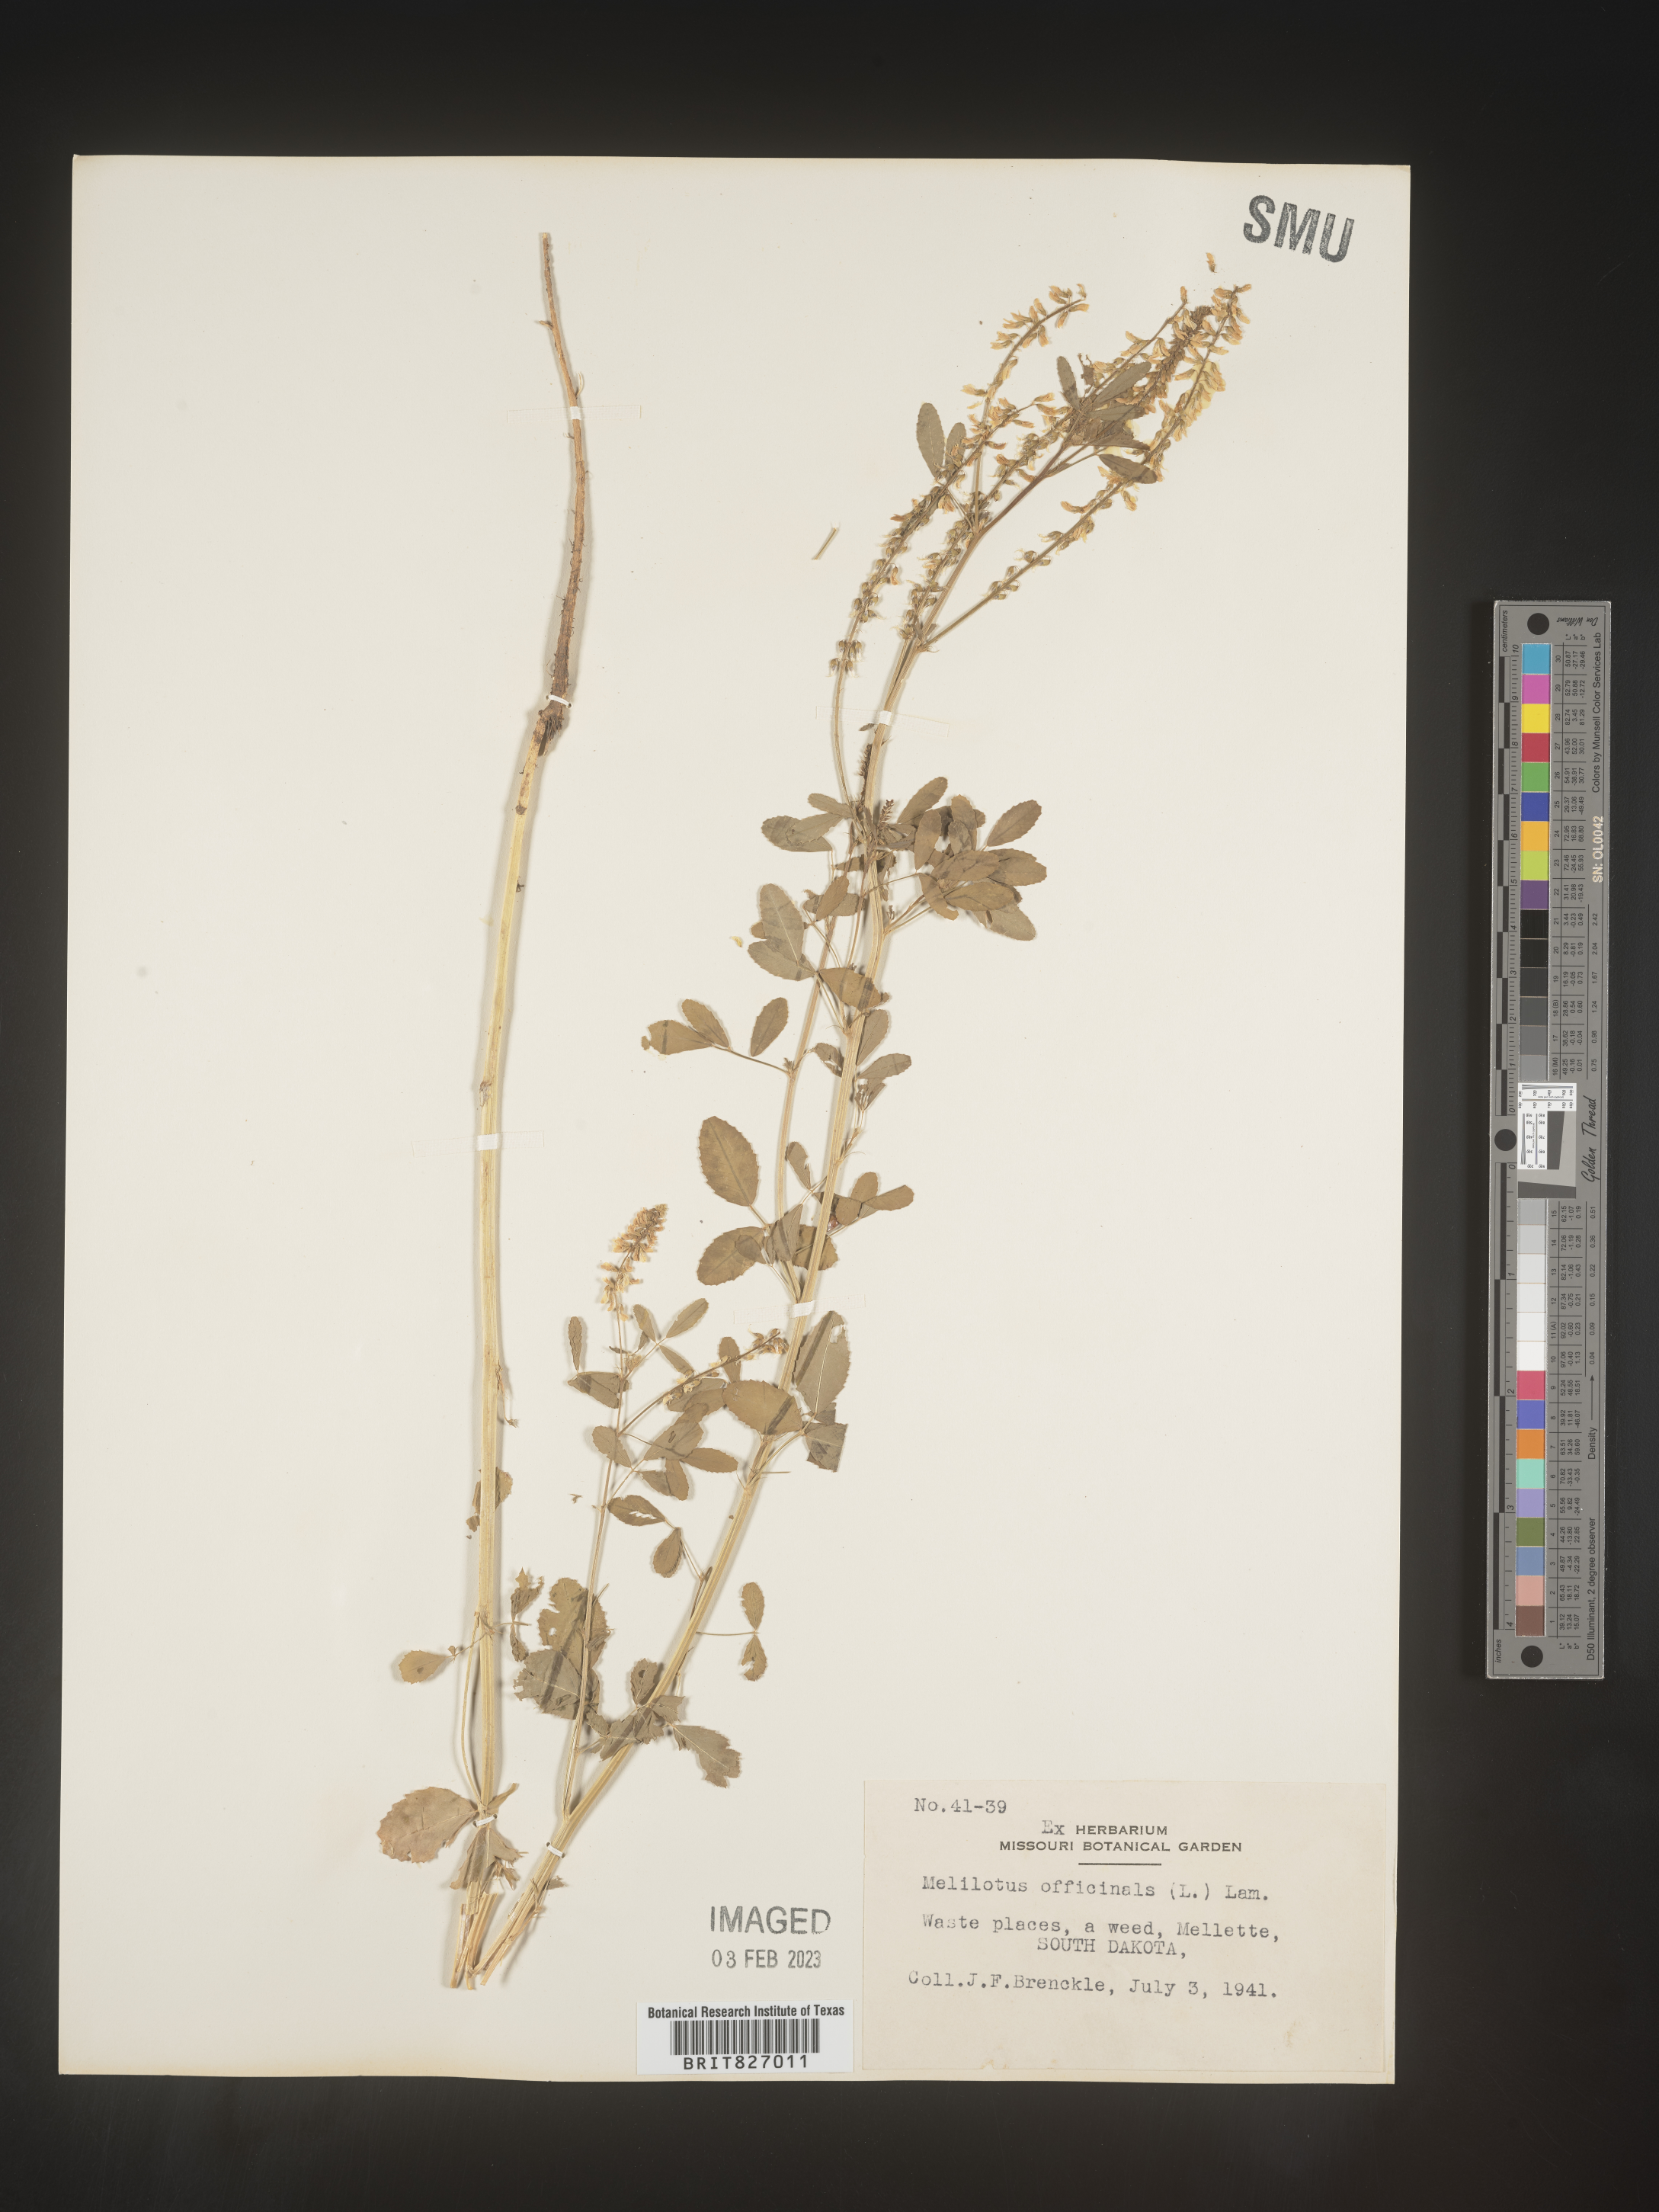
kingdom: Plantae
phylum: Tracheophyta
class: Magnoliopsida
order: Fabales
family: Fabaceae
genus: Melilotus
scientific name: Melilotus officinalis
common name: Sweetclover
